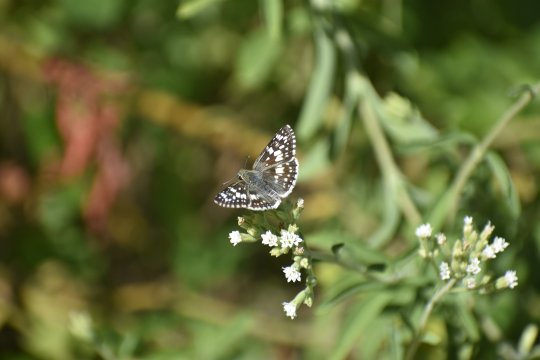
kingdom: Animalia
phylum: Arthropoda
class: Insecta
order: Lepidoptera
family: Hesperiidae
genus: Pyrgus
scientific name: Pyrgus
